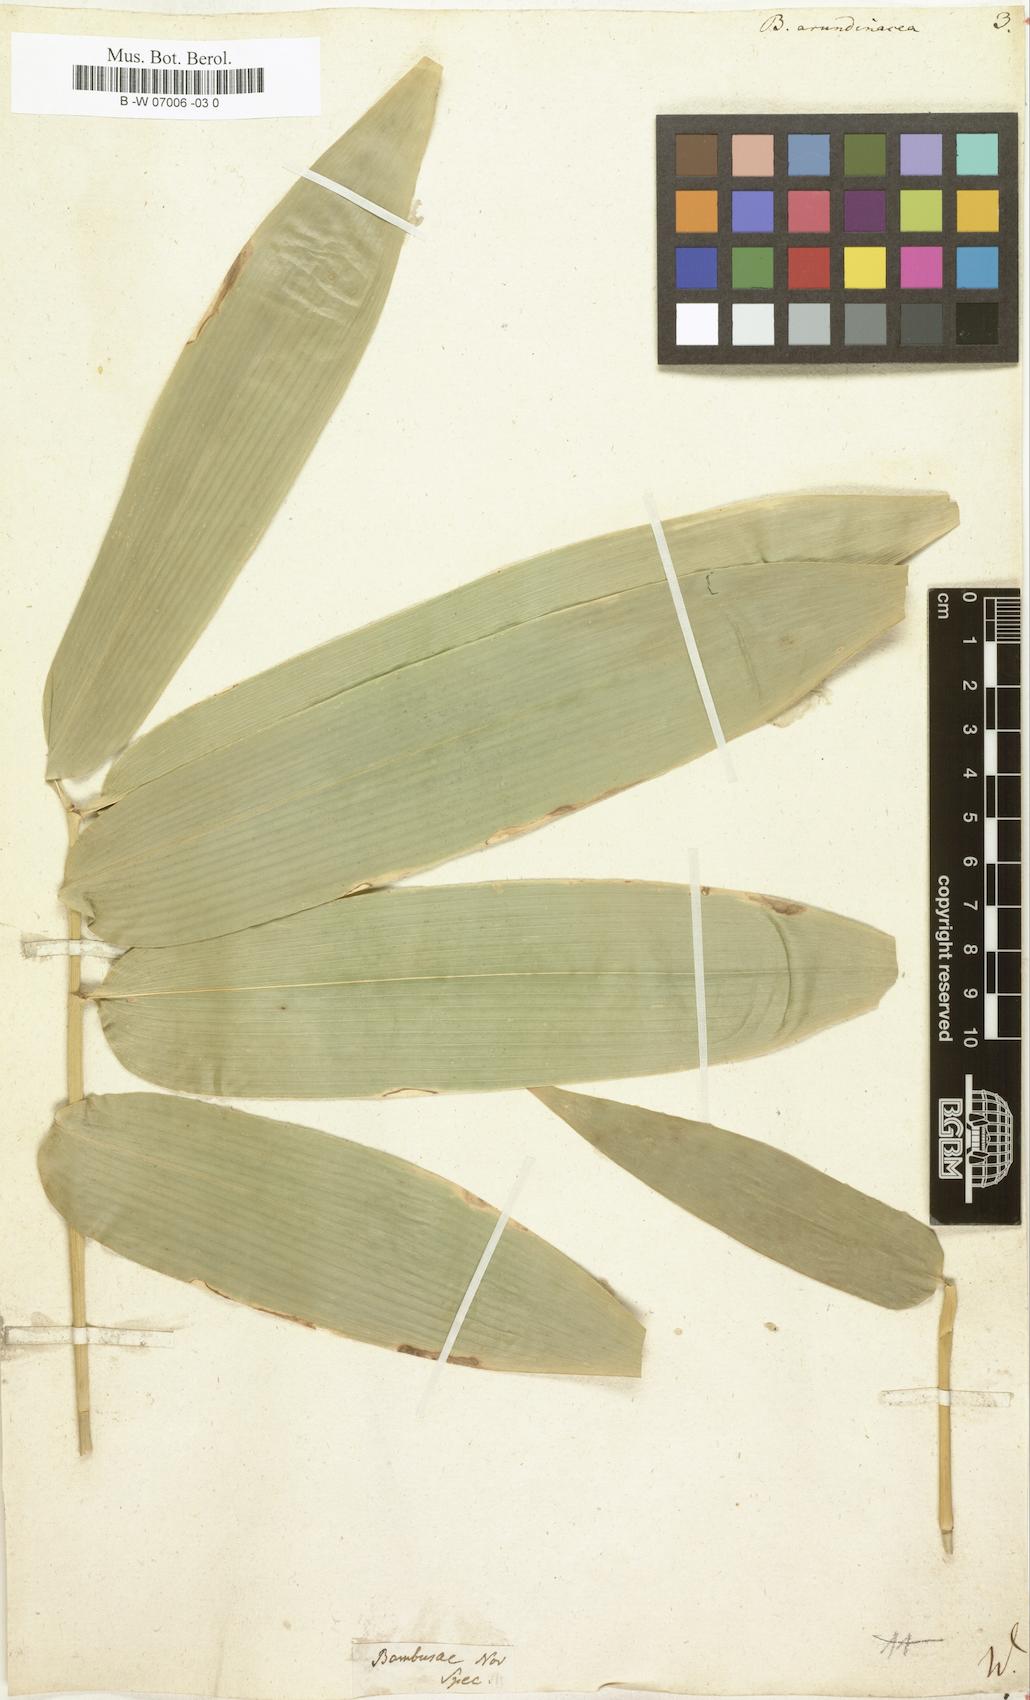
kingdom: Plantae
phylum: Tracheophyta
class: Liliopsida
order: Poales
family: Poaceae
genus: Bambusa
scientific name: Bambusa arundinacea
